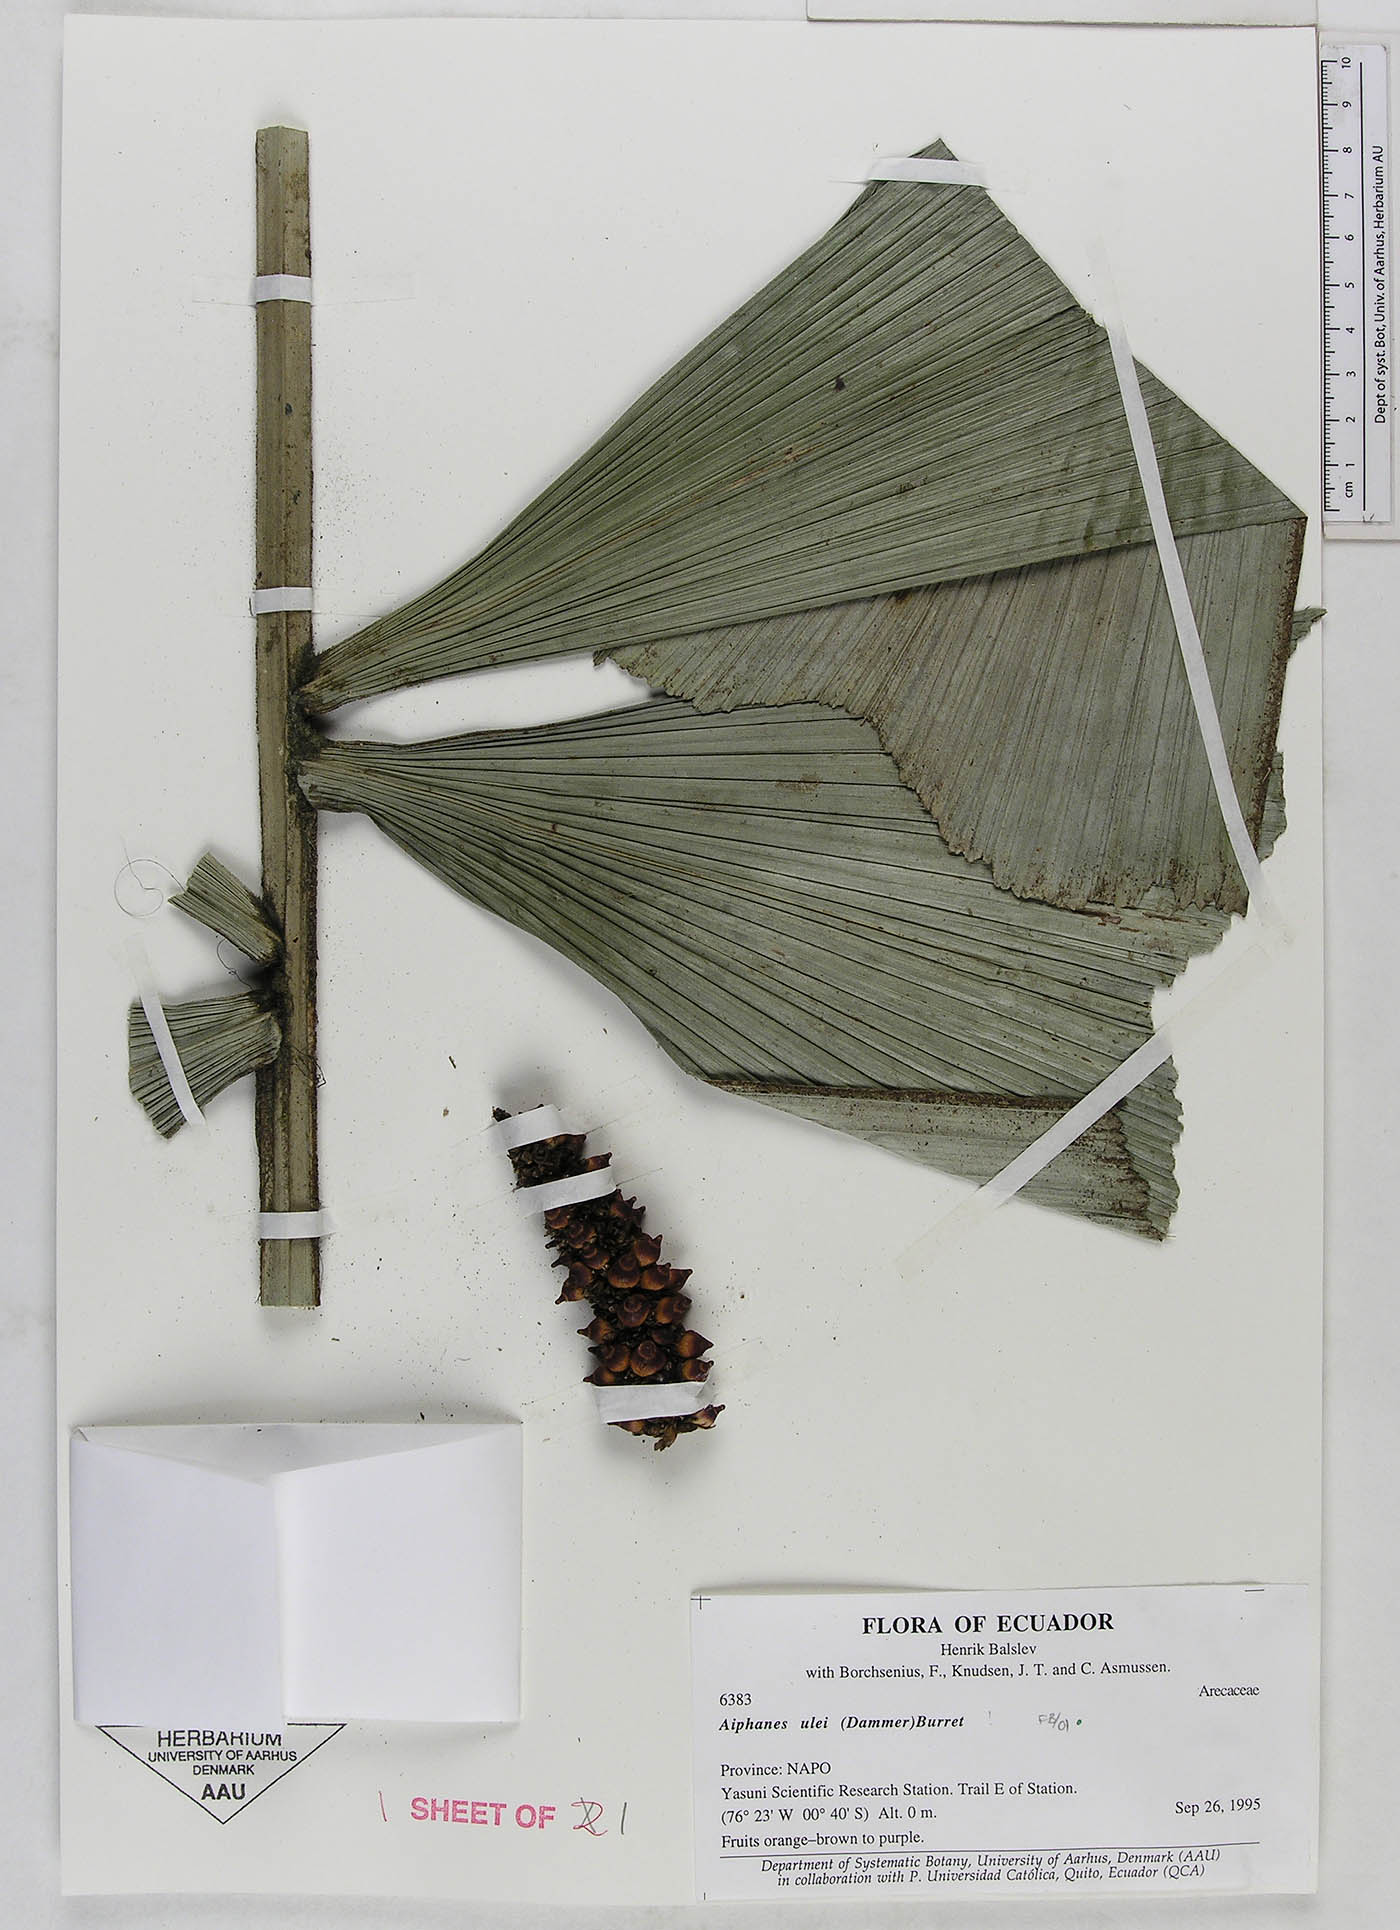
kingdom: Plantae
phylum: Tracheophyta
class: Liliopsida
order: Arecales
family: Arecaceae
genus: Aiphanes
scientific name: Aiphanes ulei
